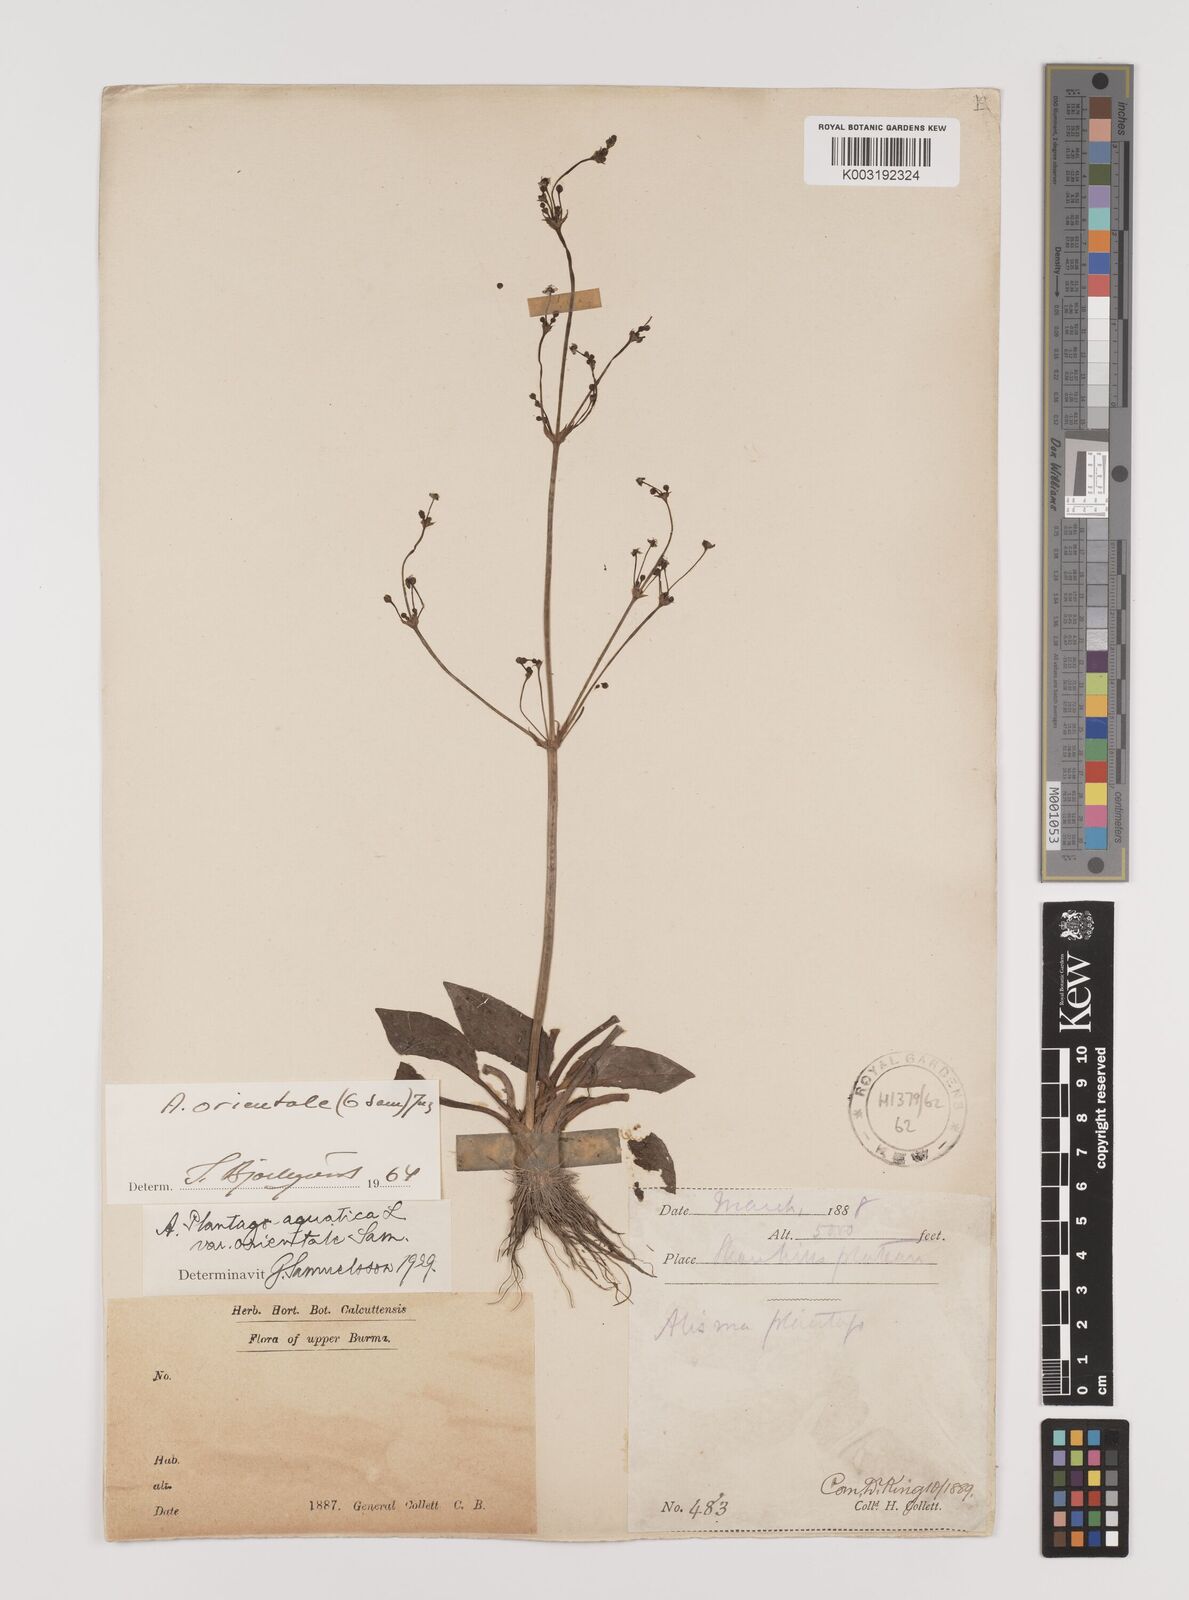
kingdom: Plantae
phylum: Tracheophyta
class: Liliopsida
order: Alismatales
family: Alismataceae
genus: Alisma
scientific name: Alisma plantago-aquatica
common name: Water-plantain
